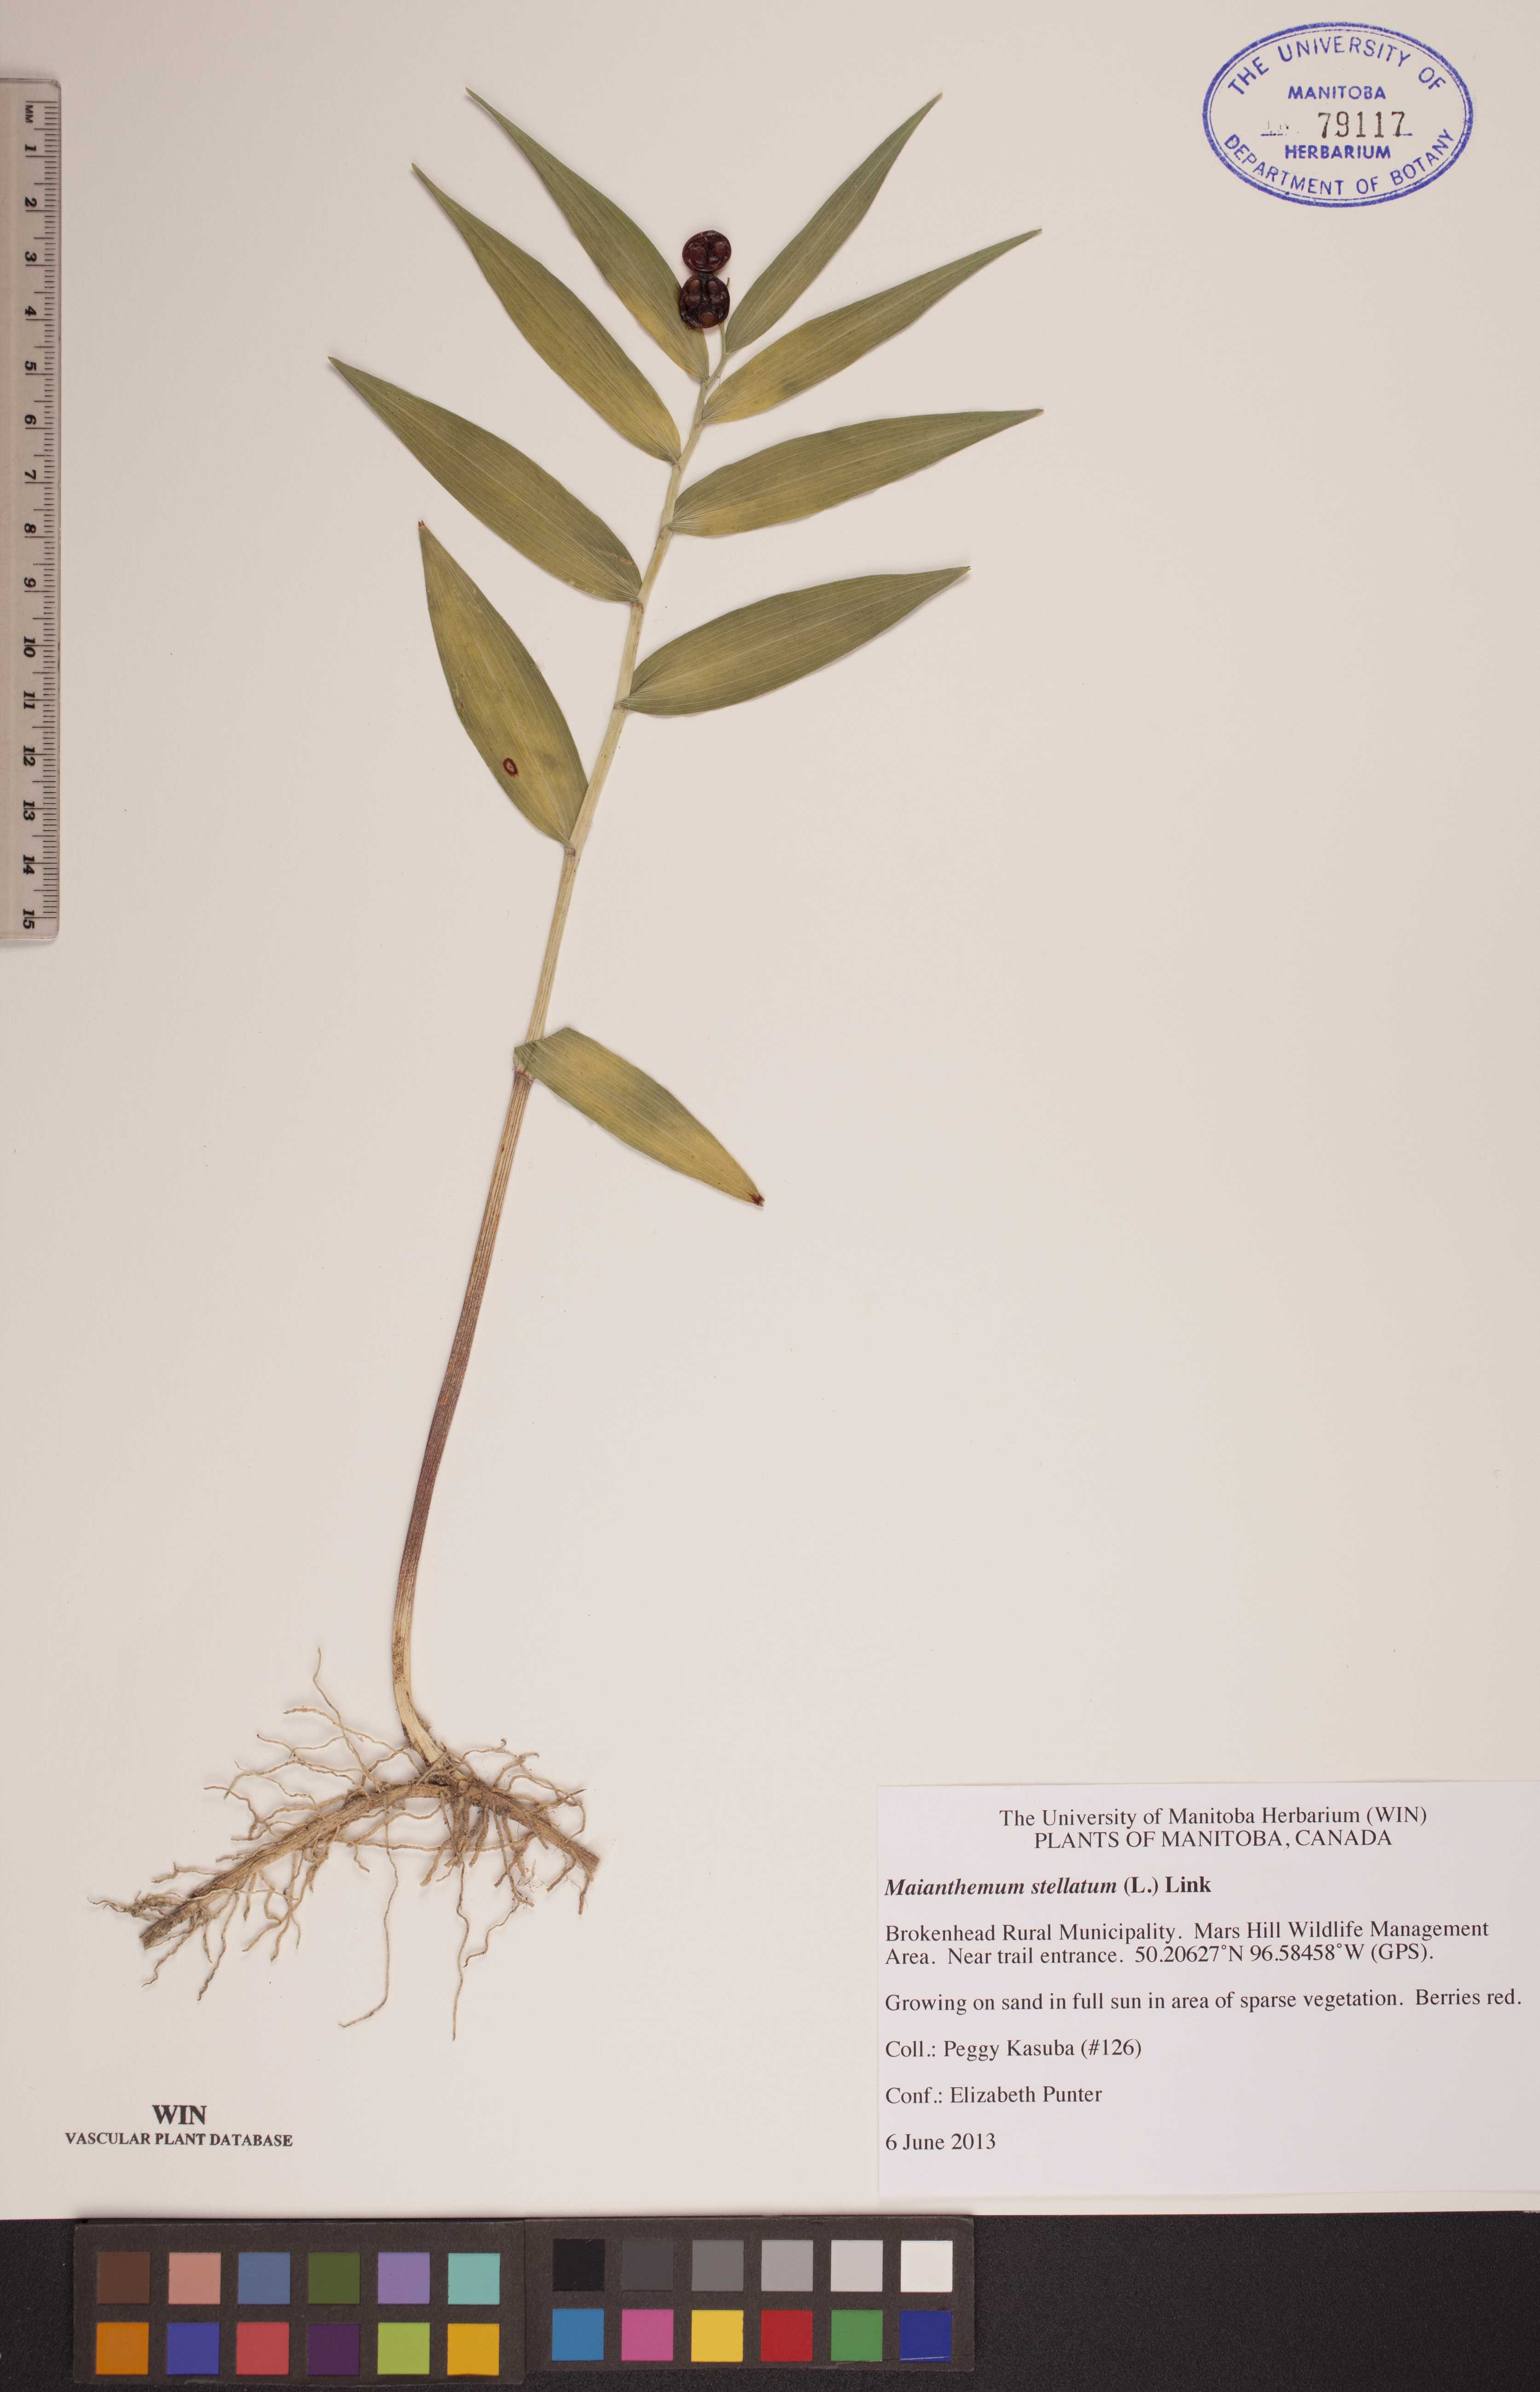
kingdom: Plantae
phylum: Tracheophyta
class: Liliopsida
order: Asparagales
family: Asparagaceae
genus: Maianthemum
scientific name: Maianthemum stellatum
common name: Little false solomon's seal
